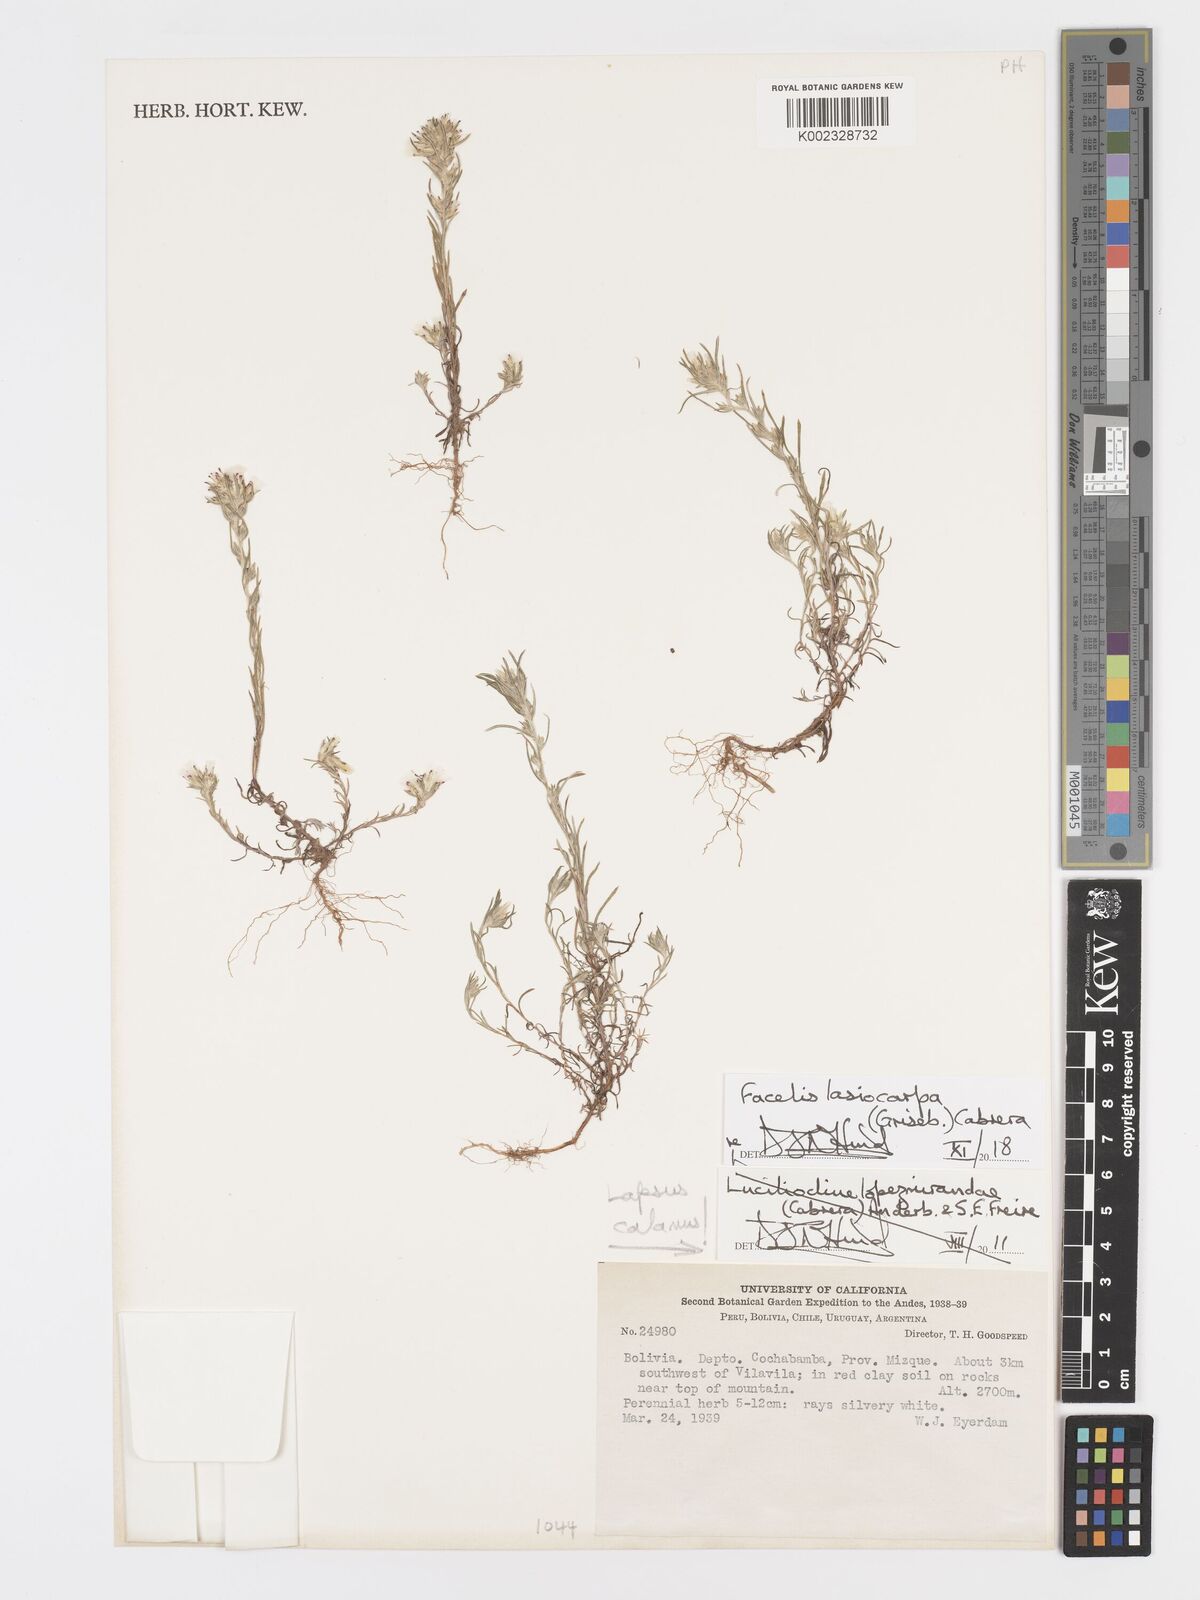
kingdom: Plantae
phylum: Tracheophyta
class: Magnoliopsida
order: Asterales
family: Asteraceae
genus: Facelis
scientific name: Facelis lasiocarpa
